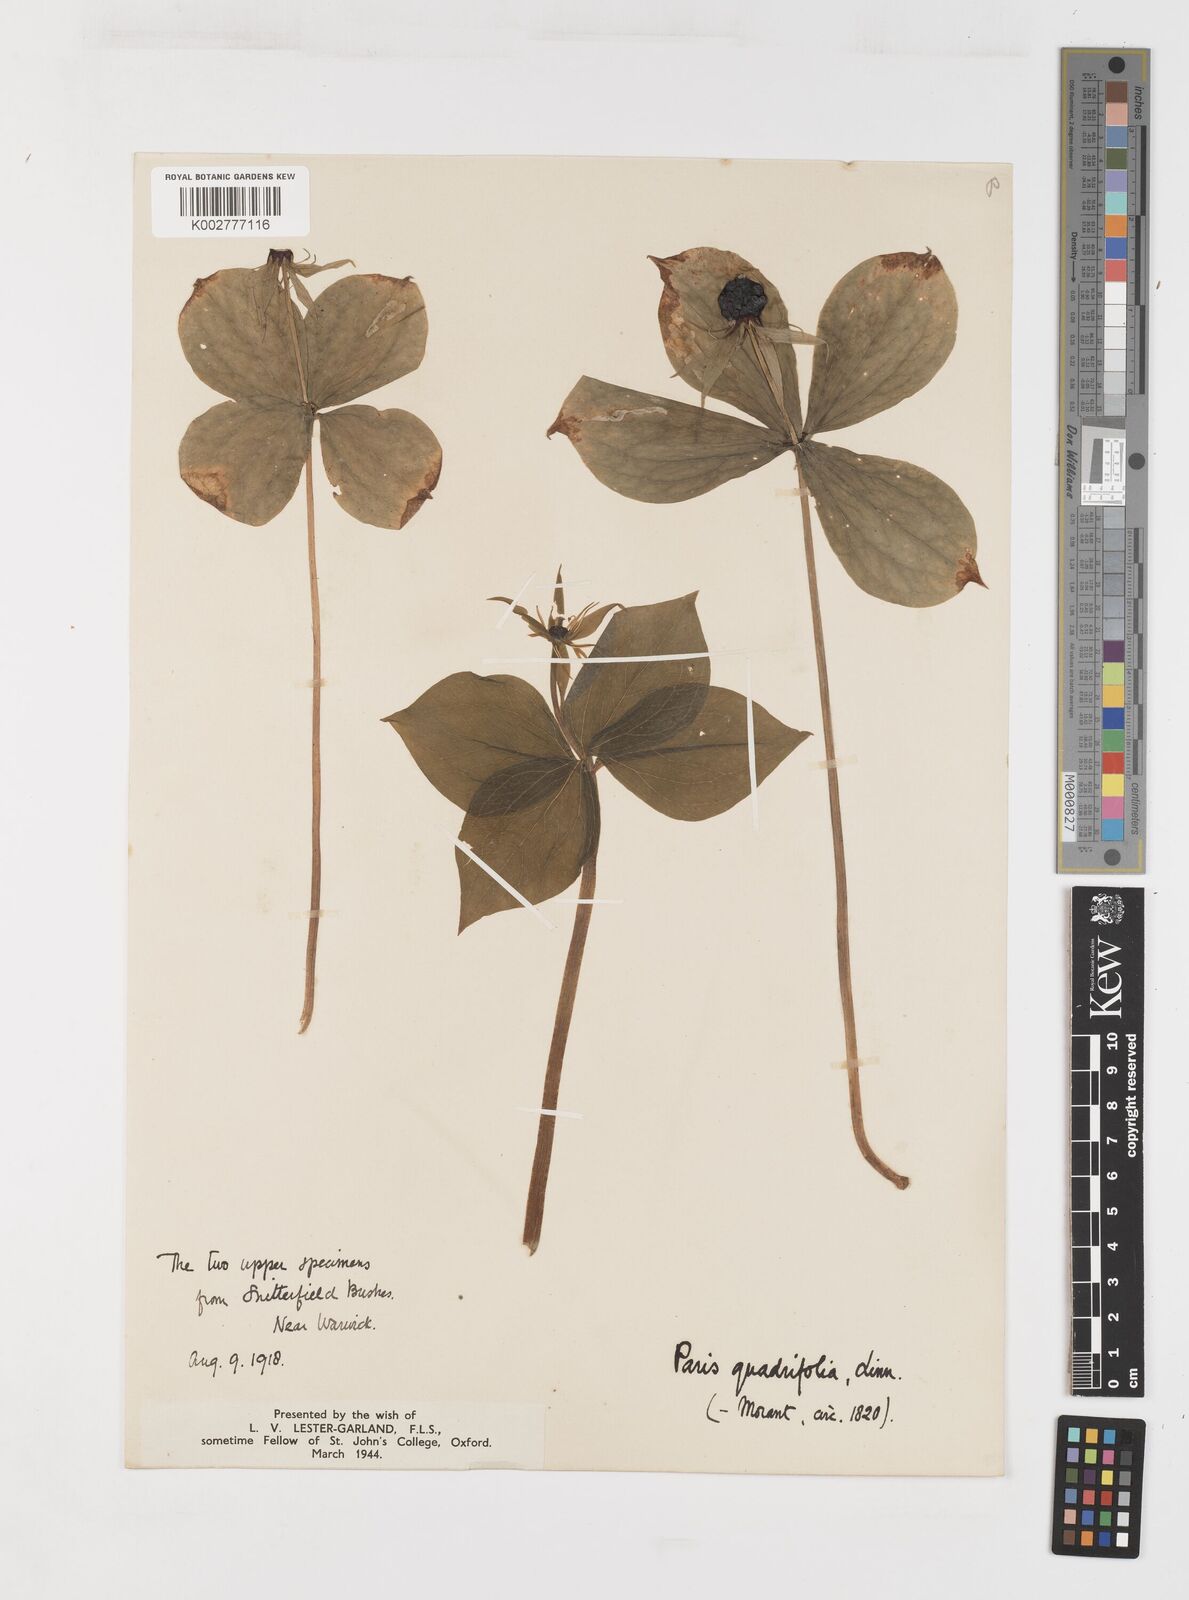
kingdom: Plantae
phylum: Tracheophyta
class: Liliopsida
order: Liliales
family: Melanthiaceae
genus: Paris
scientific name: Paris quadrifolia
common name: Herb-paris
